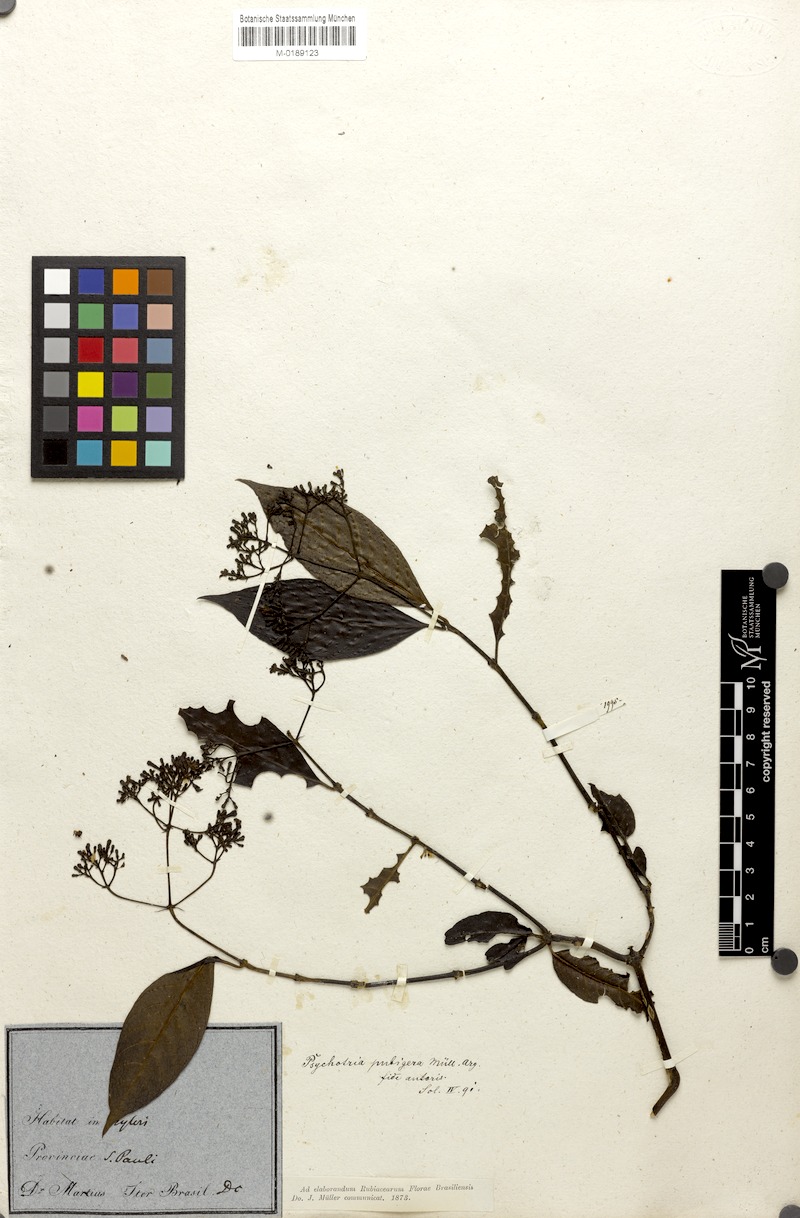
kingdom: Plantae
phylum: Tracheophyta
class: Magnoliopsida
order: Gentianales
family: Rubiaceae
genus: Psychotria
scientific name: Psychotria nemorosa
